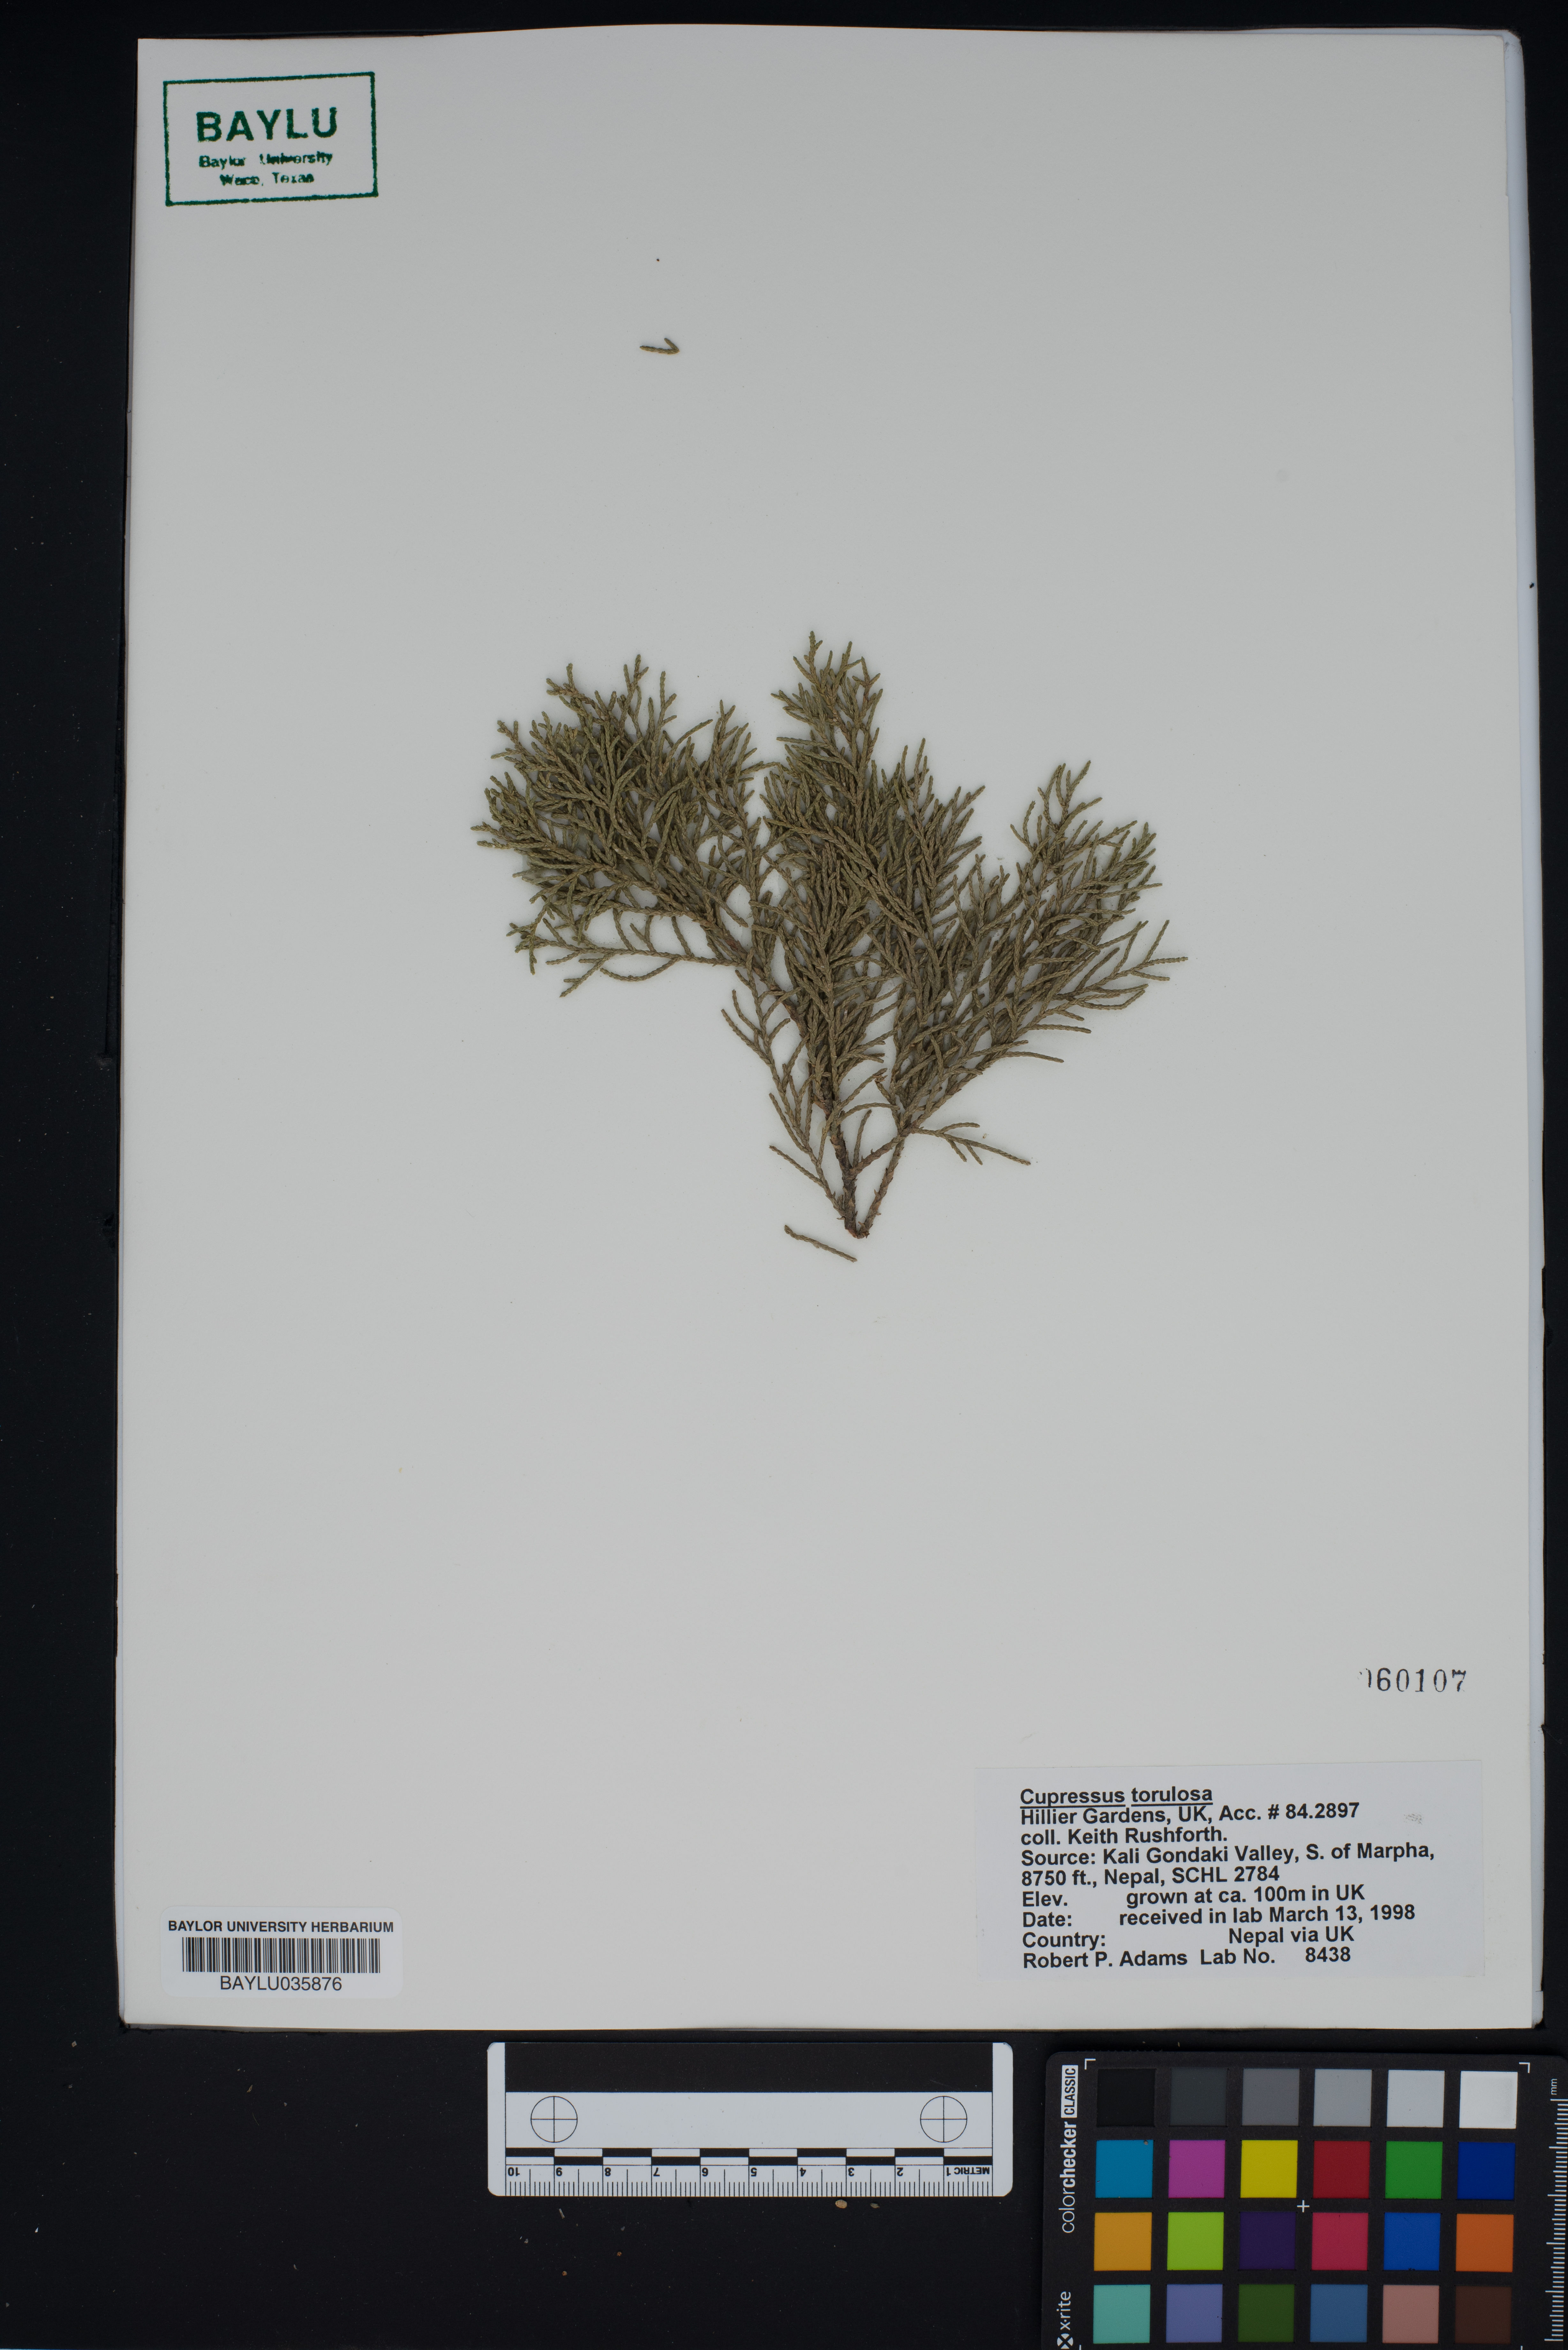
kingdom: Plantae
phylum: Tracheophyta
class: Pinopsida
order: Pinales
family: Cupressaceae
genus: Cupressus
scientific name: Cupressus torulosa
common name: Himalayan cypress
